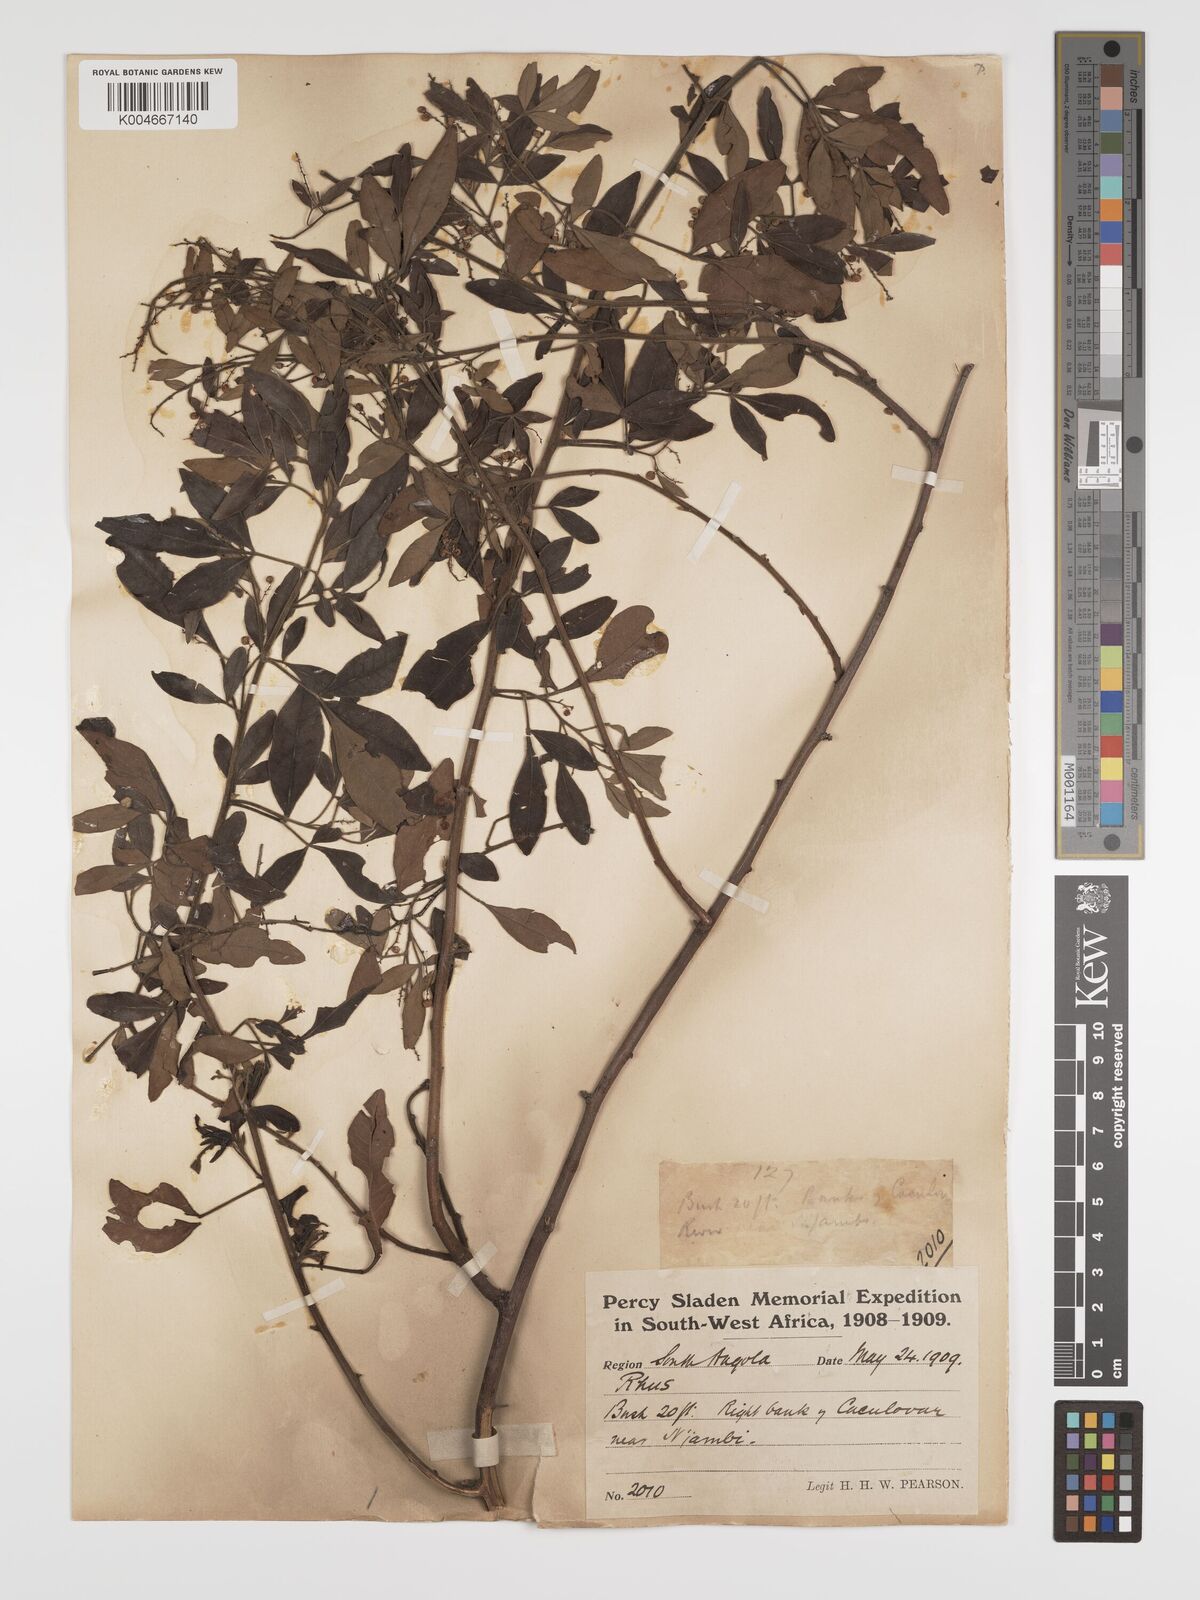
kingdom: Plantae
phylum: Tracheophyta
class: Magnoliopsida
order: Sapindales
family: Anacardiaceae
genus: Searsia
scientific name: Searsia quartiniana
